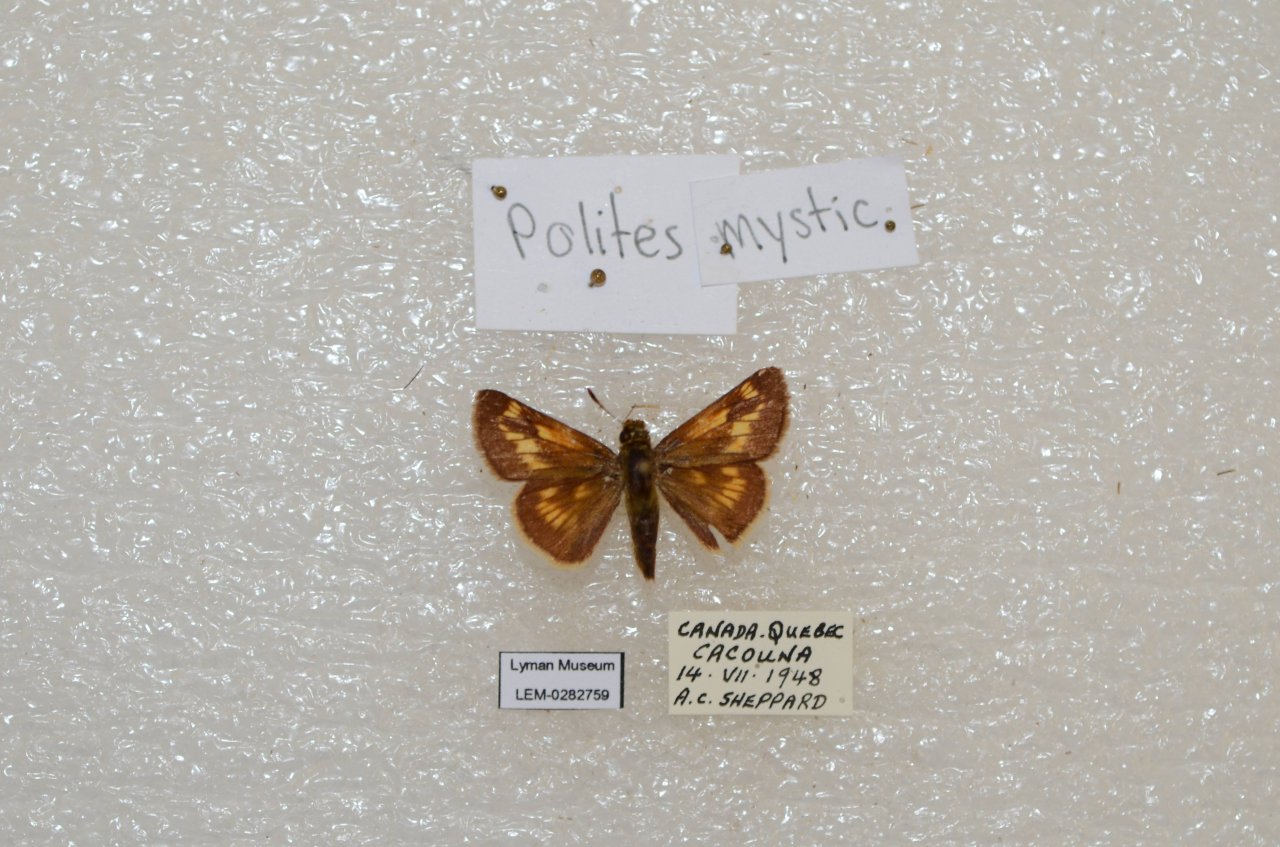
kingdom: Animalia
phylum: Arthropoda
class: Insecta
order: Lepidoptera
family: Hesperiidae
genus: Polites
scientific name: Polites
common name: Long Dash Skipper
